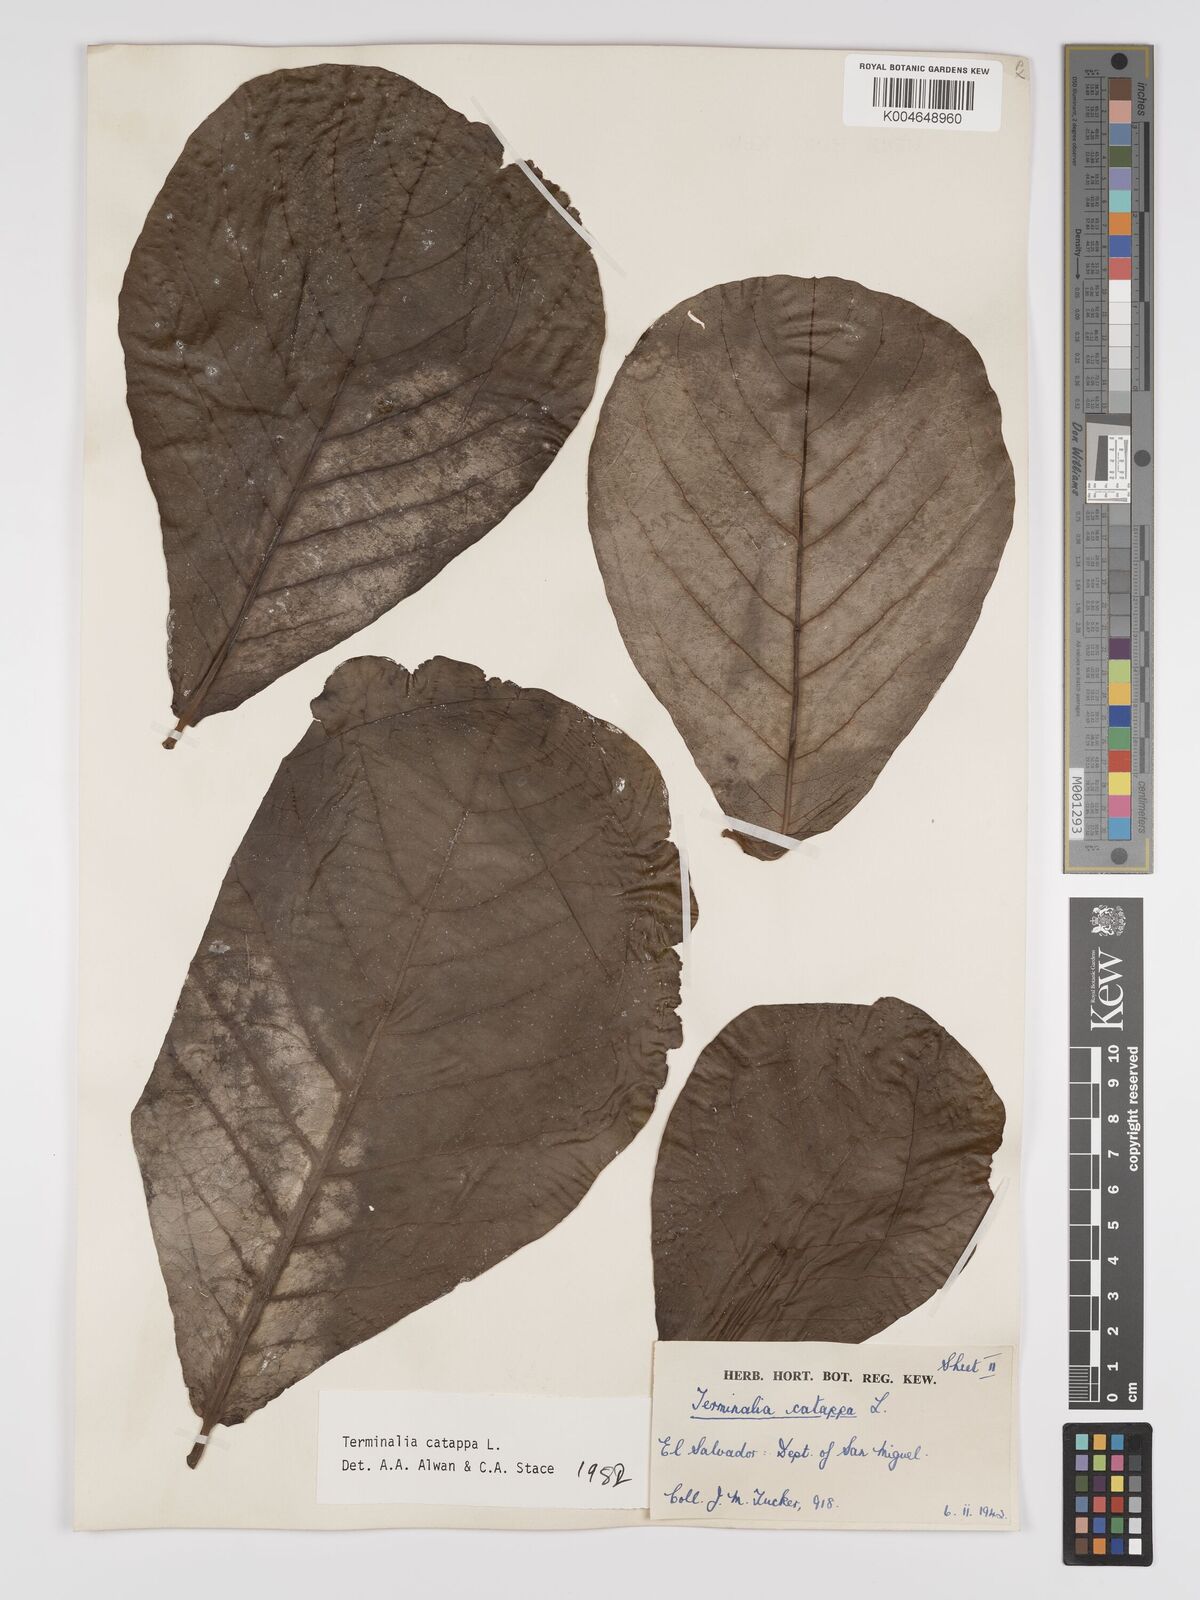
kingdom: Plantae
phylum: Tracheophyta
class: Magnoliopsida
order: Myrtales
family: Combretaceae
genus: Terminalia
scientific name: Terminalia catappa
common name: Tropical almond
